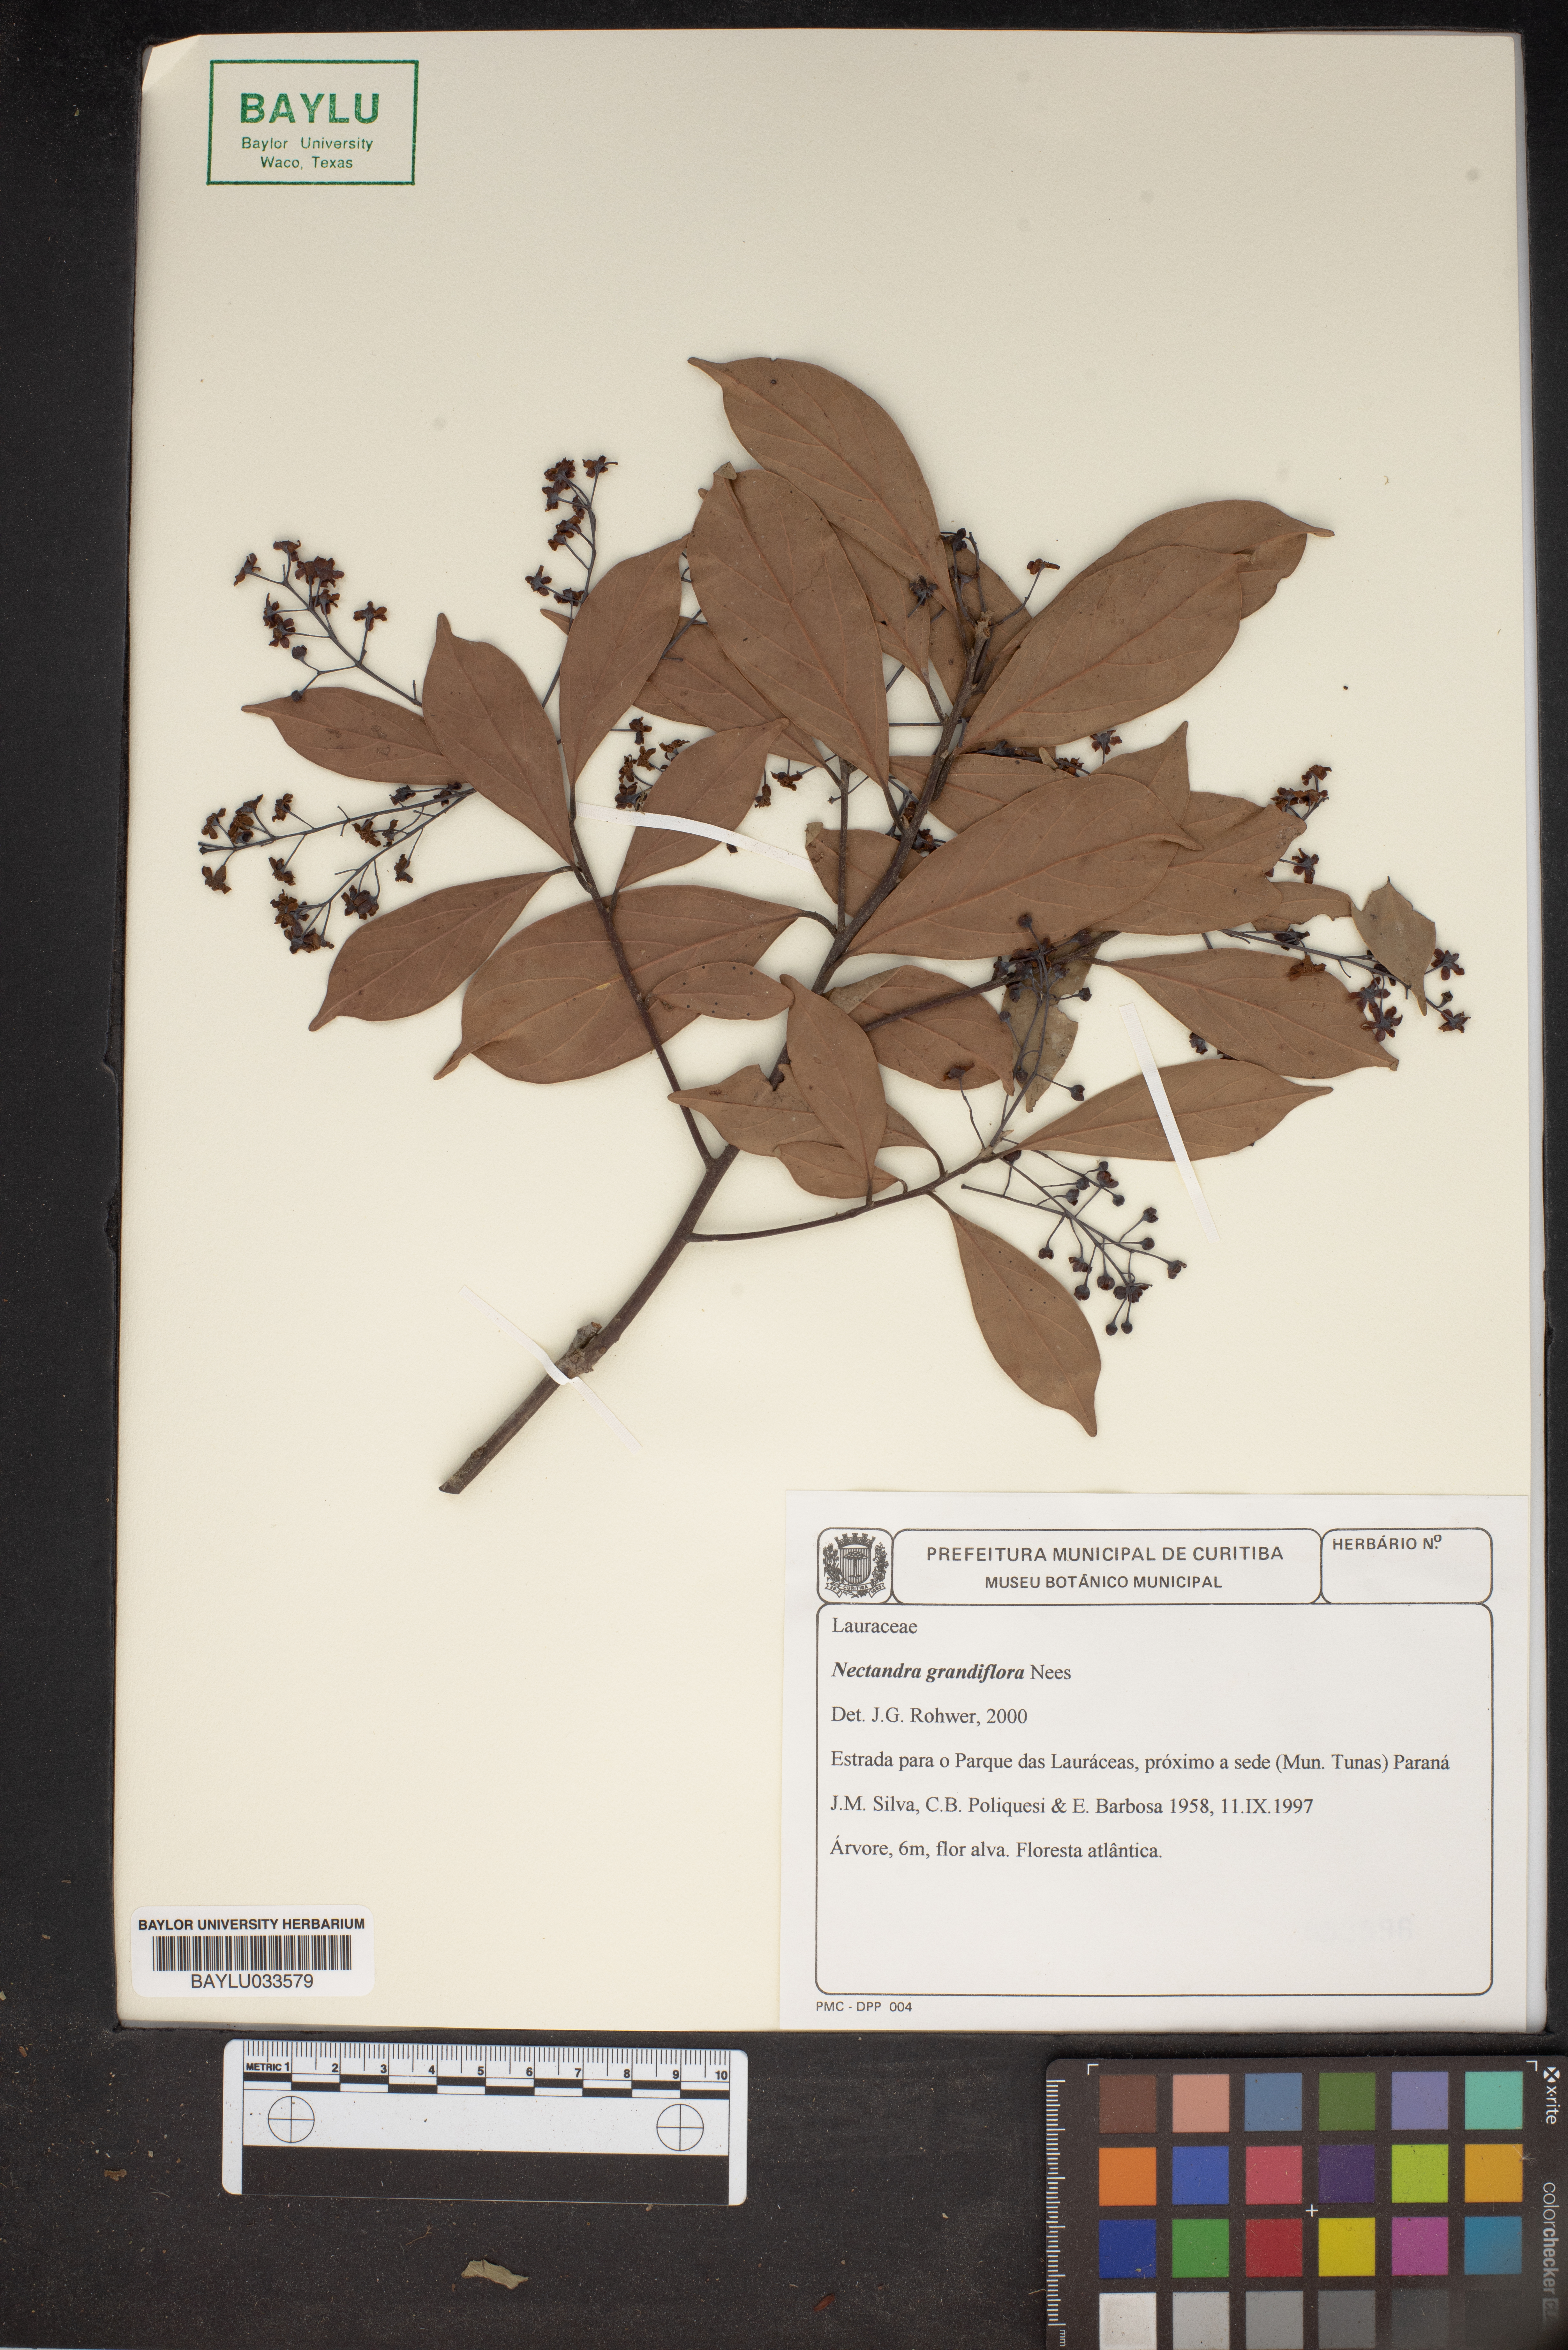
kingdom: Plantae
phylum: Tracheophyta
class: Magnoliopsida
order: Laurales
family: Lauraceae
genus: Nectandra
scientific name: Nectandra grandiflora
